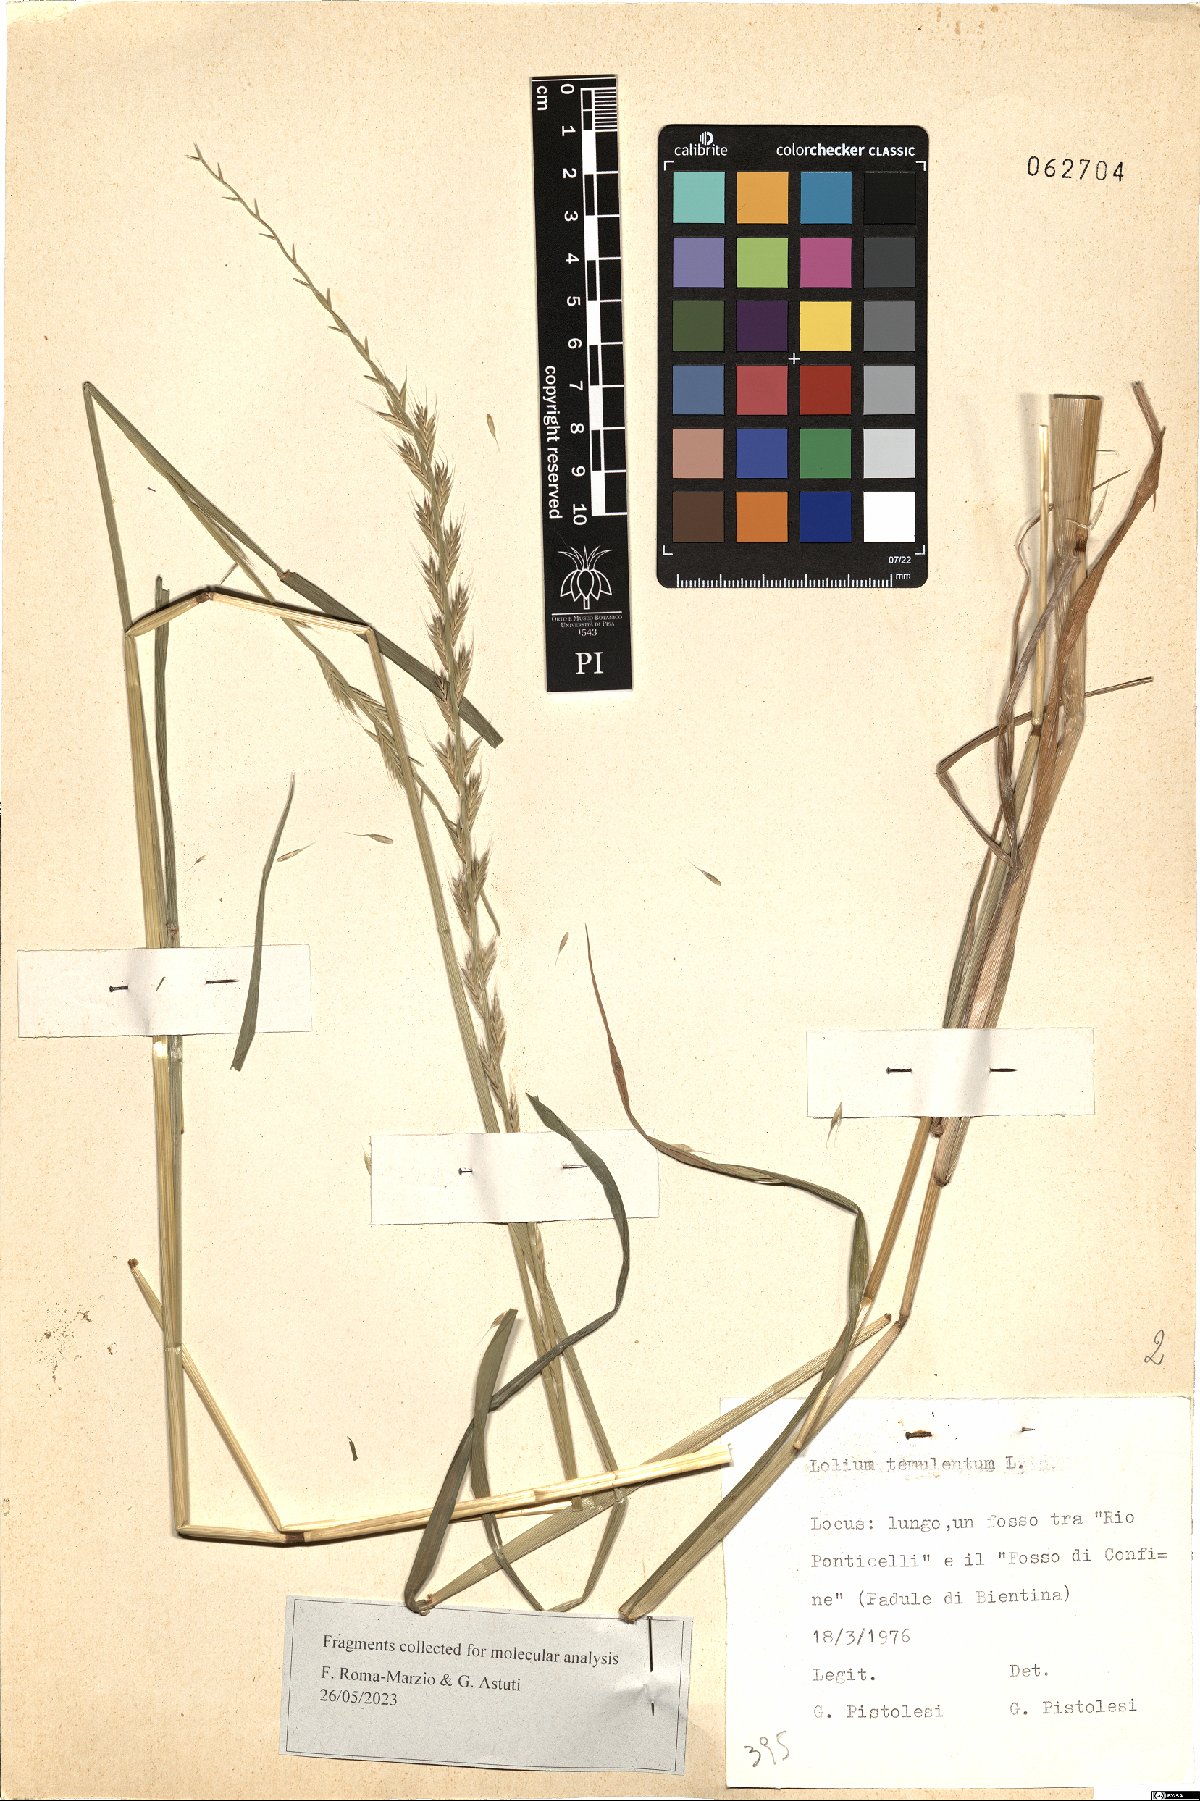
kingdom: Plantae
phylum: Tracheophyta
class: Liliopsida
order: Poales
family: Poaceae
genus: Lolium
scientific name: Lolium temulentum
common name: Darnel
